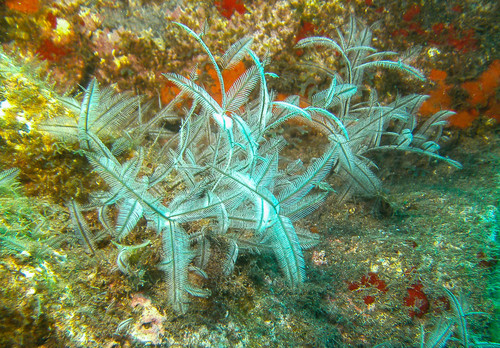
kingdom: Animalia
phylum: Cnidaria
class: Hydrozoa
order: Leptothecata
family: Aglaopheniidae
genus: Macrorhynchia
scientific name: Macrorhynchia philippina
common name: Stinging hydroid
